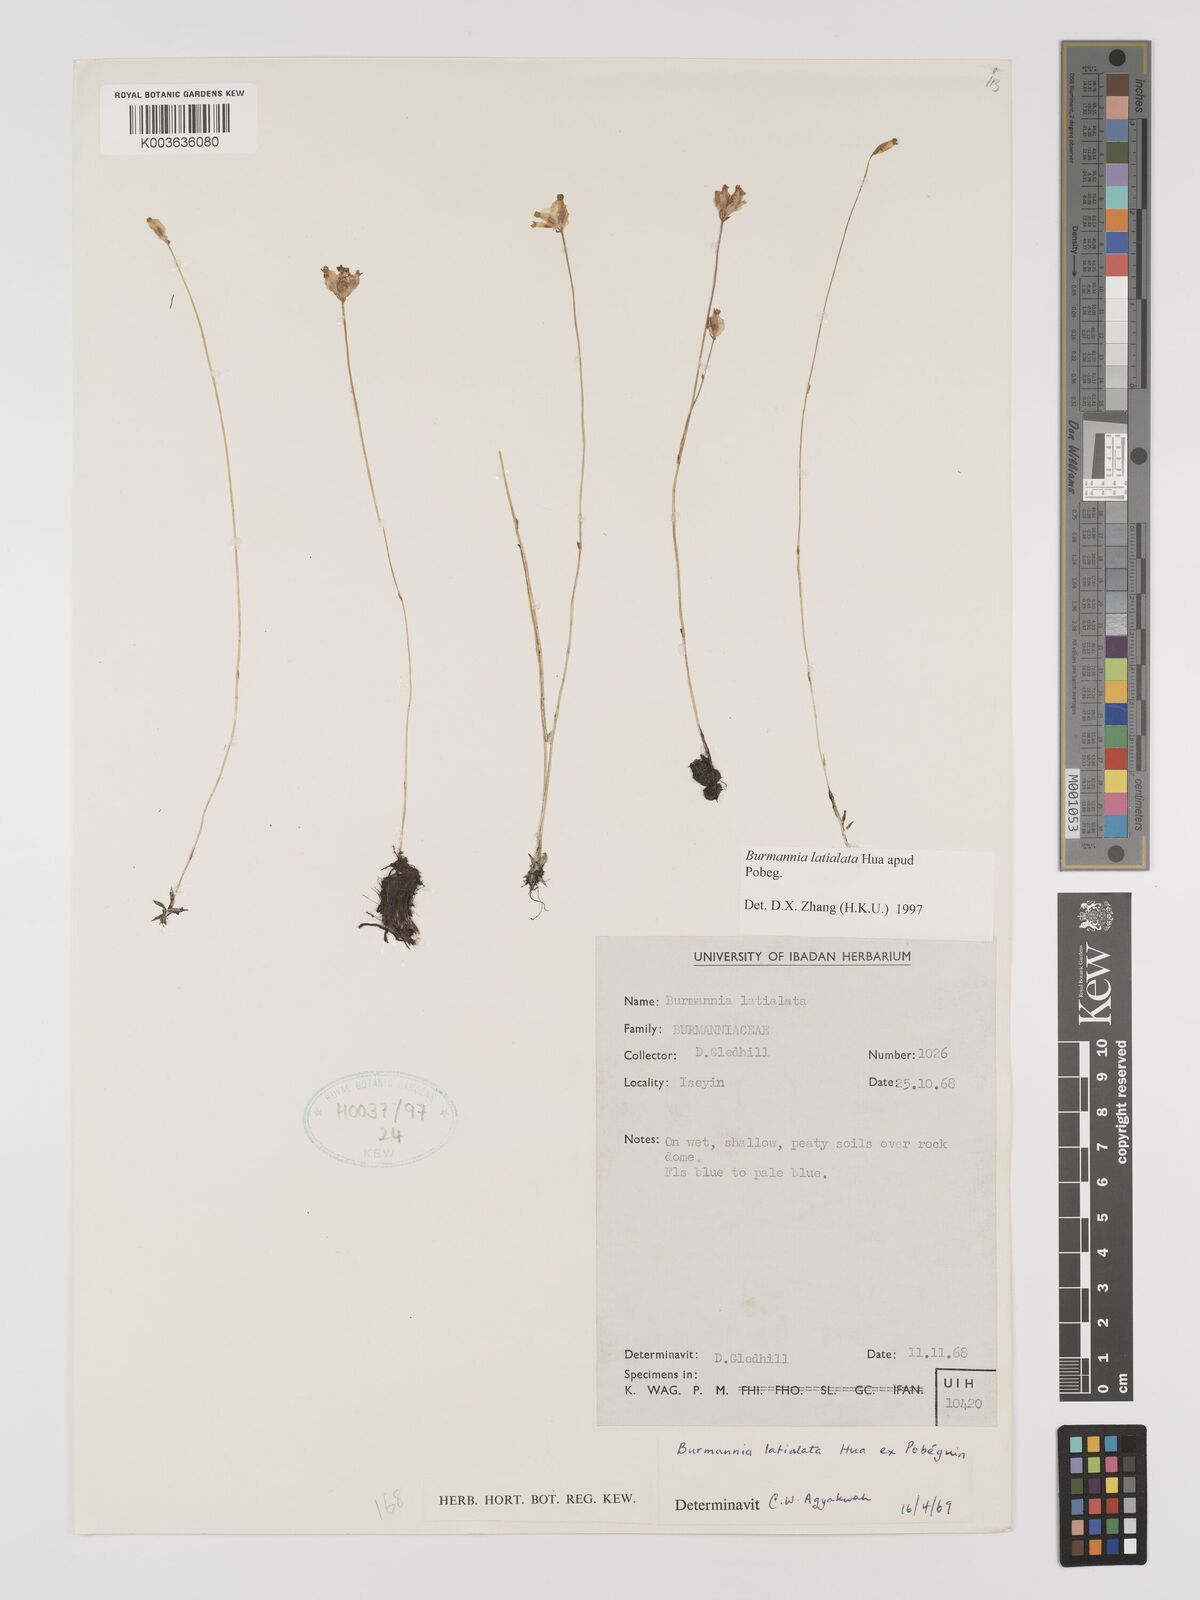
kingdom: Plantae
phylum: Tracheophyta
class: Liliopsida
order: Dioscoreales
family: Burmanniaceae
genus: Burmannia
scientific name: Burmannia madagascariensis
